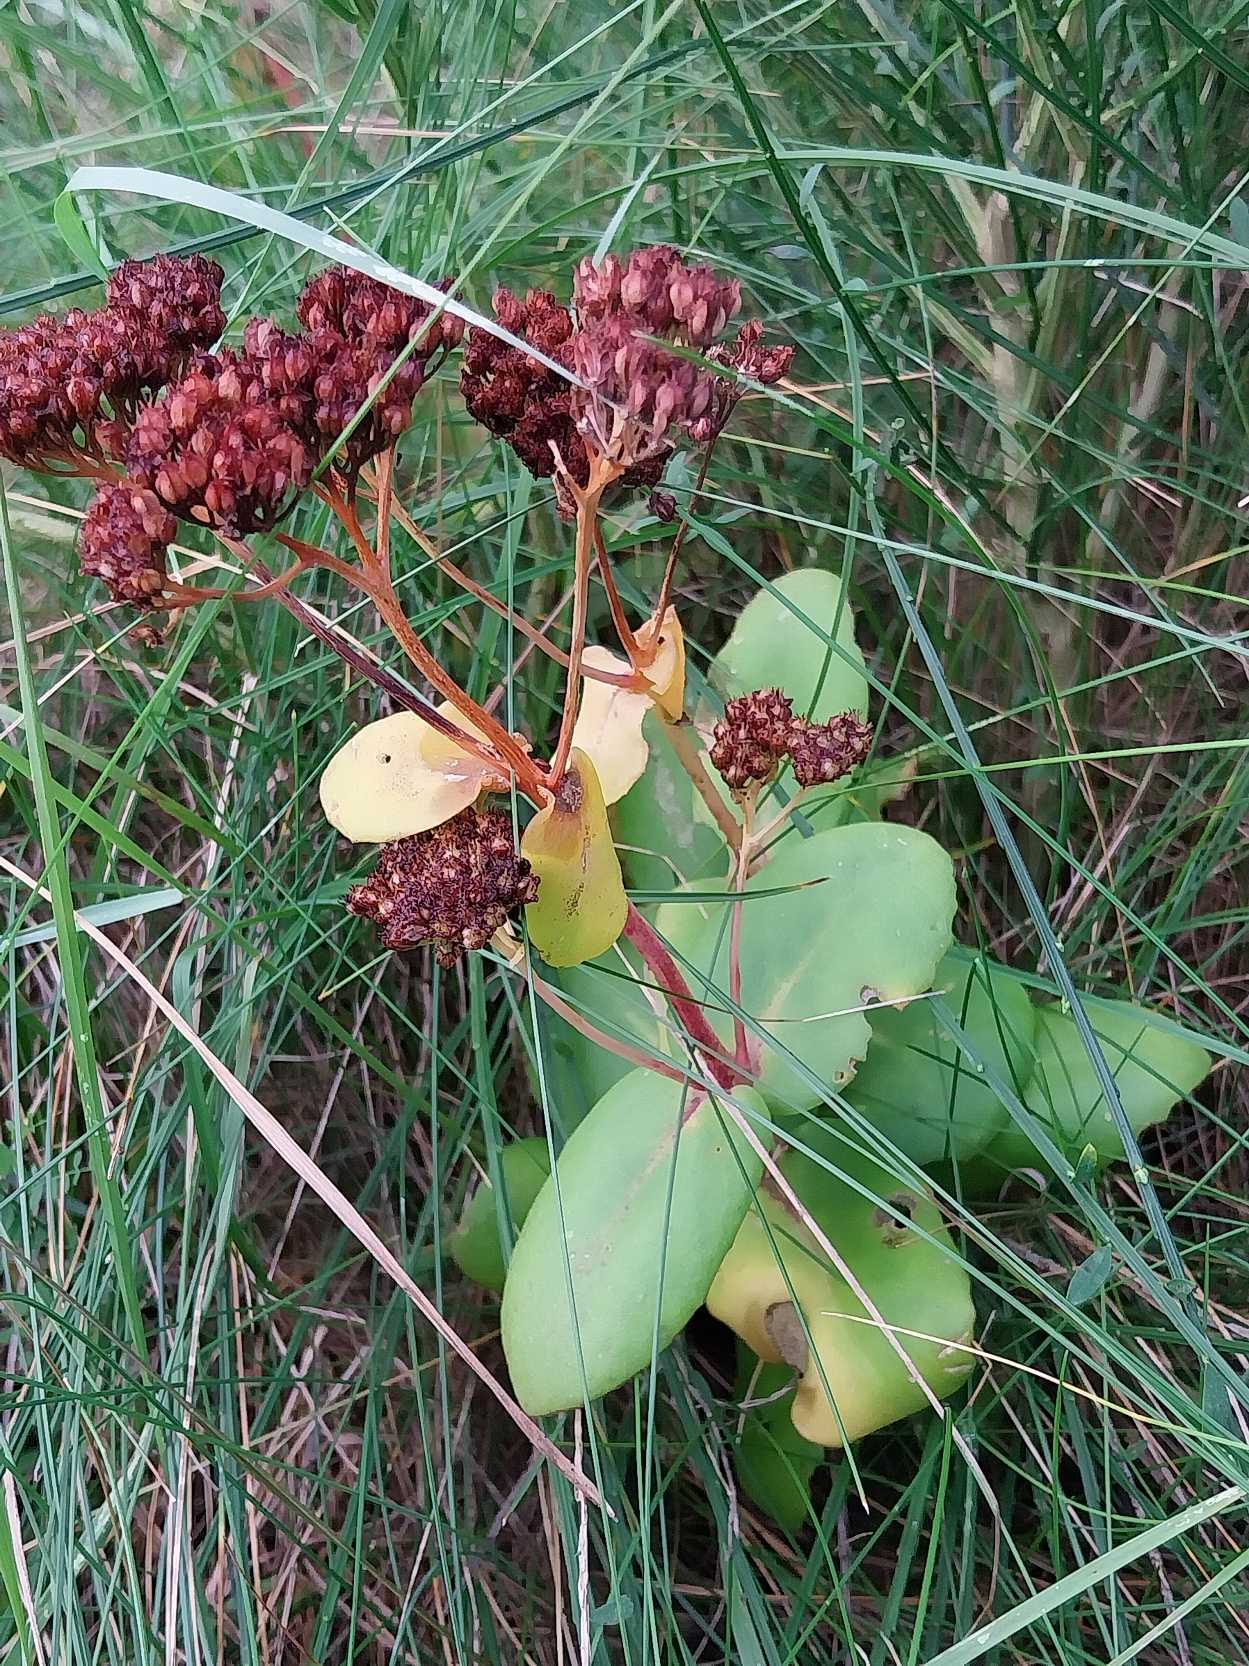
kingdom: Plantae
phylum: Tracheophyta
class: Magnoliopsida
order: Saxifragales
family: Crassulaceae
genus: Hylotelephium
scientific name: Hylotelephium maximum
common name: Almindelig sankthansurt
